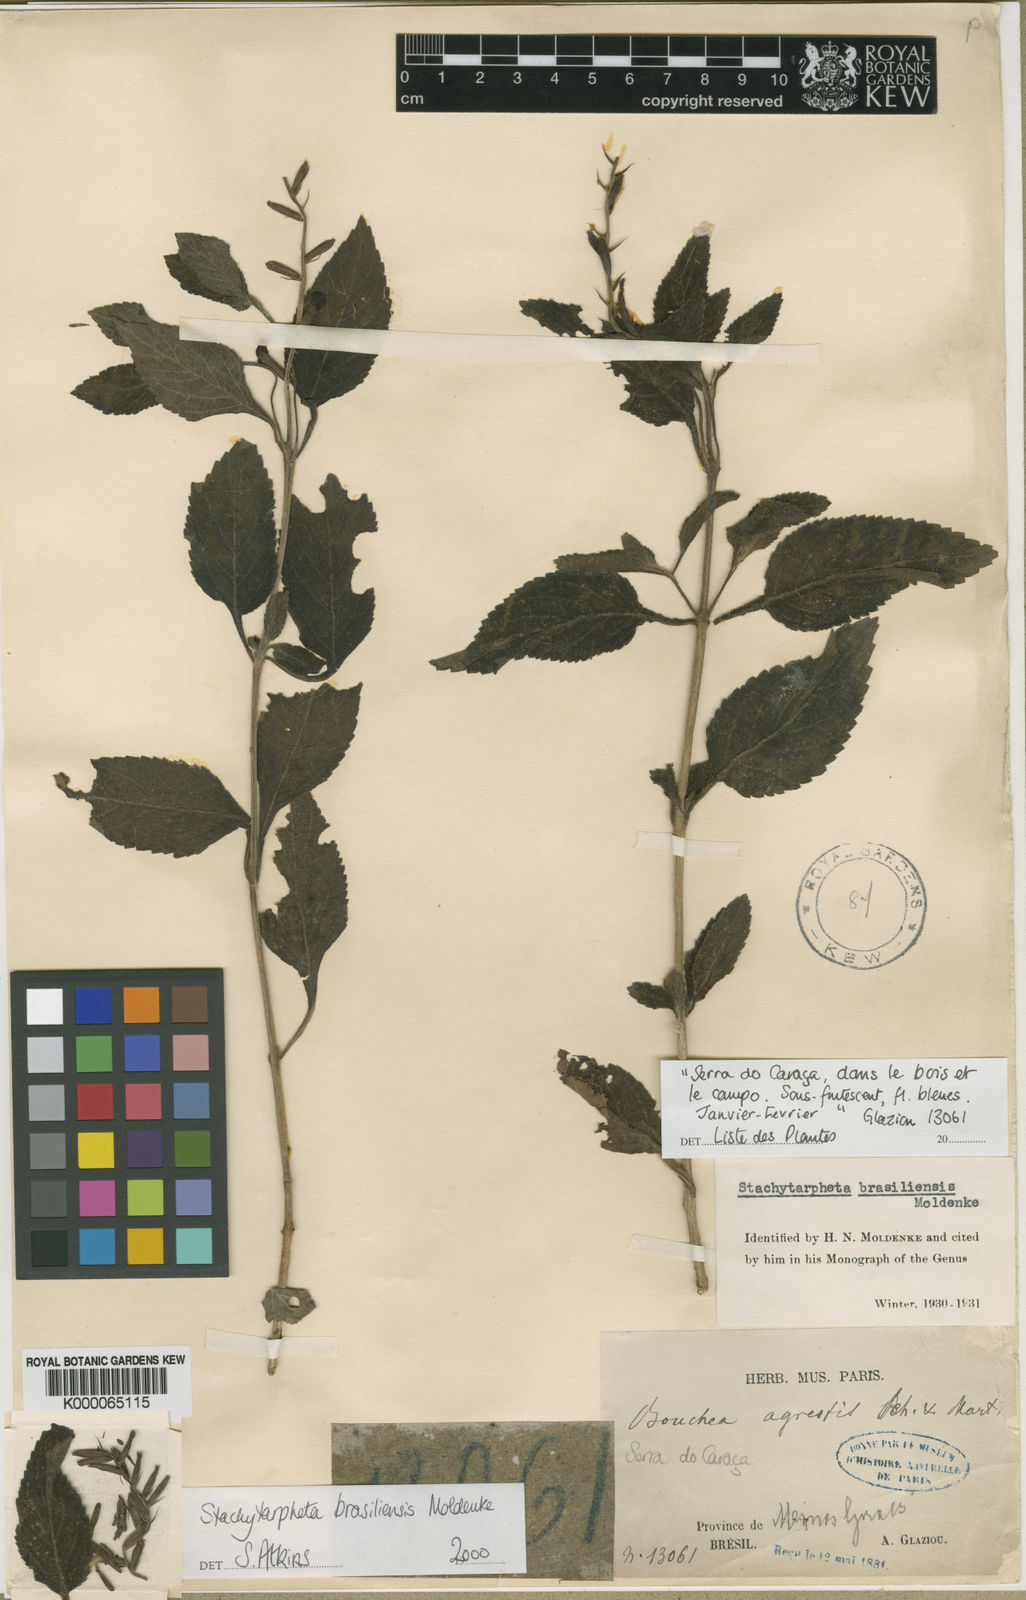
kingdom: Plantae
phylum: Tracheophyta
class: Magnoliopsida
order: Lamiales
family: Verbenaceae
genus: Stachytarpheta
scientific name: Stachytarpheta brasiliensis
